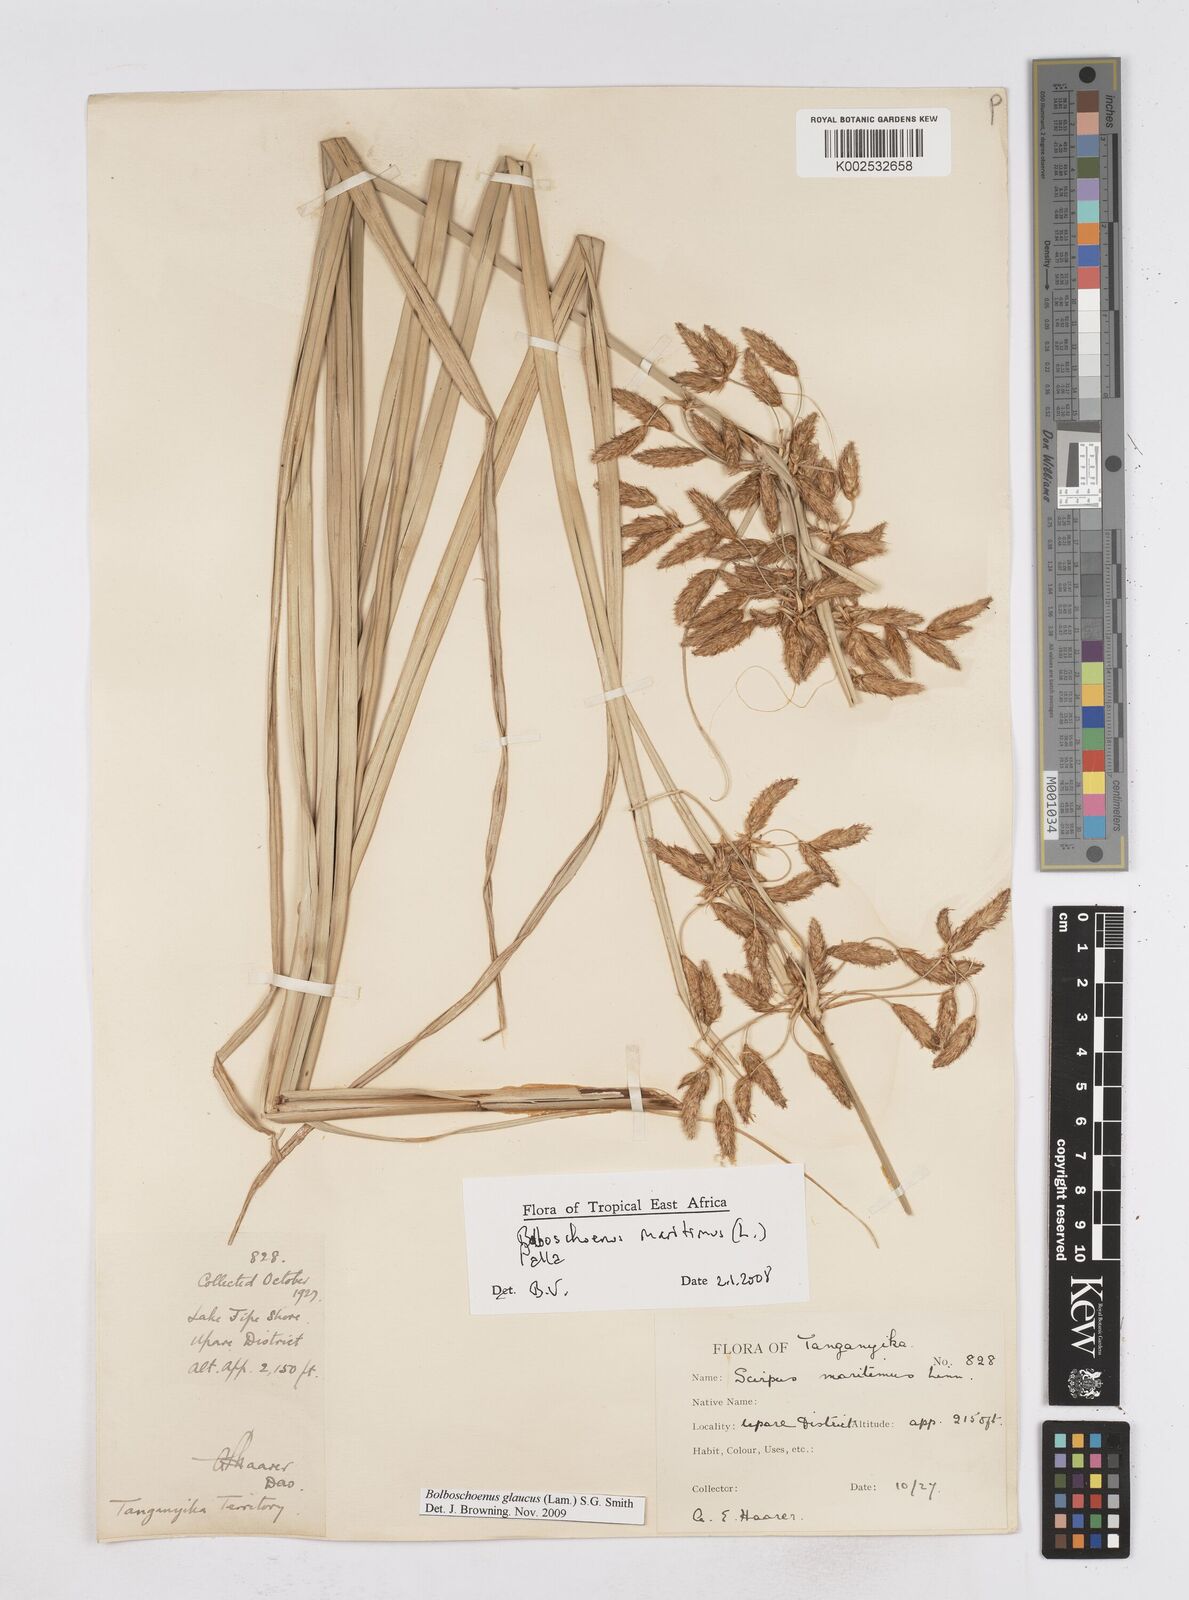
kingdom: Plantae
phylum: Tracheophyta
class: Liliopsida
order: Poales
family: Cyperaceae
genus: Bolboschoenus
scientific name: Bolboschoenus glaucus
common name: Tuberous bulrush
